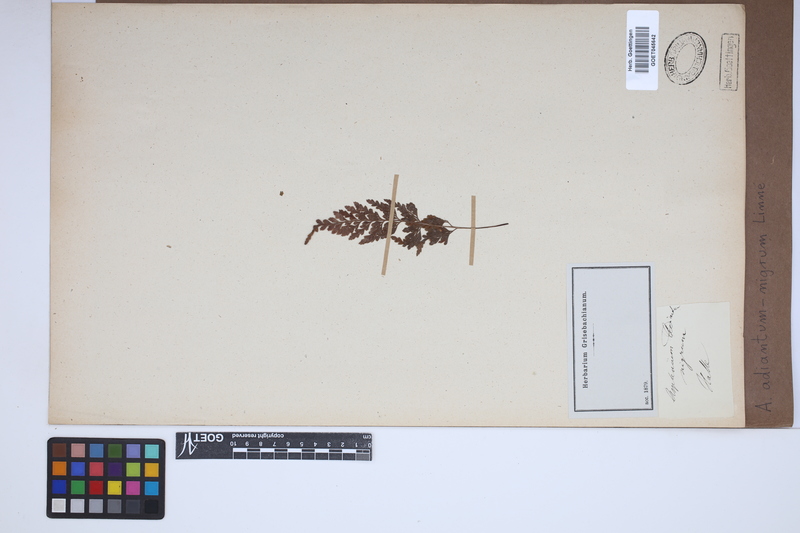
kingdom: Plantae
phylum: Tracheophyta
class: Polypodiopsida
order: Polypodiales
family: Aspleniaceae
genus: Asplenium
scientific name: Asplenium adiantum-nigrum
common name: Black spleenwort
